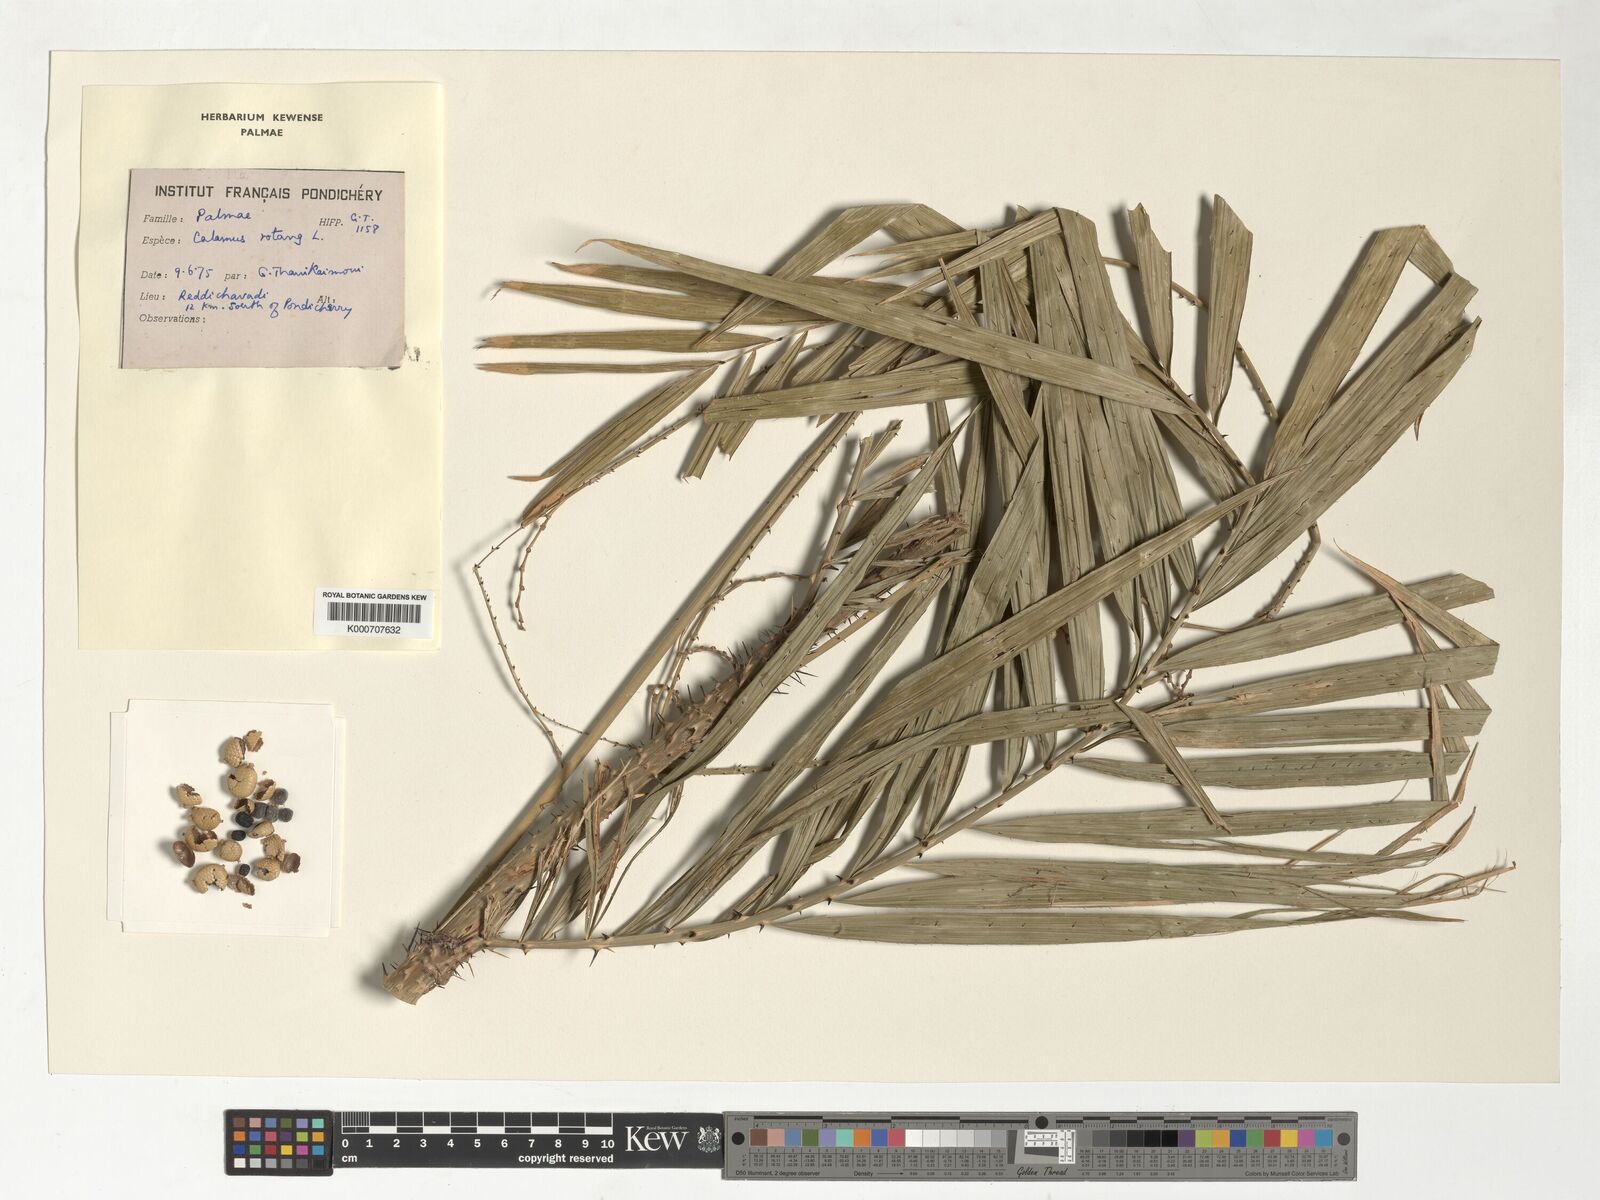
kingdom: Plantae
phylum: Tracheophyta
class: Liliopsida
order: Arecales
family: Arecaceae
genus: Calamus
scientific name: Calamus rotang
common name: Rattan cane
